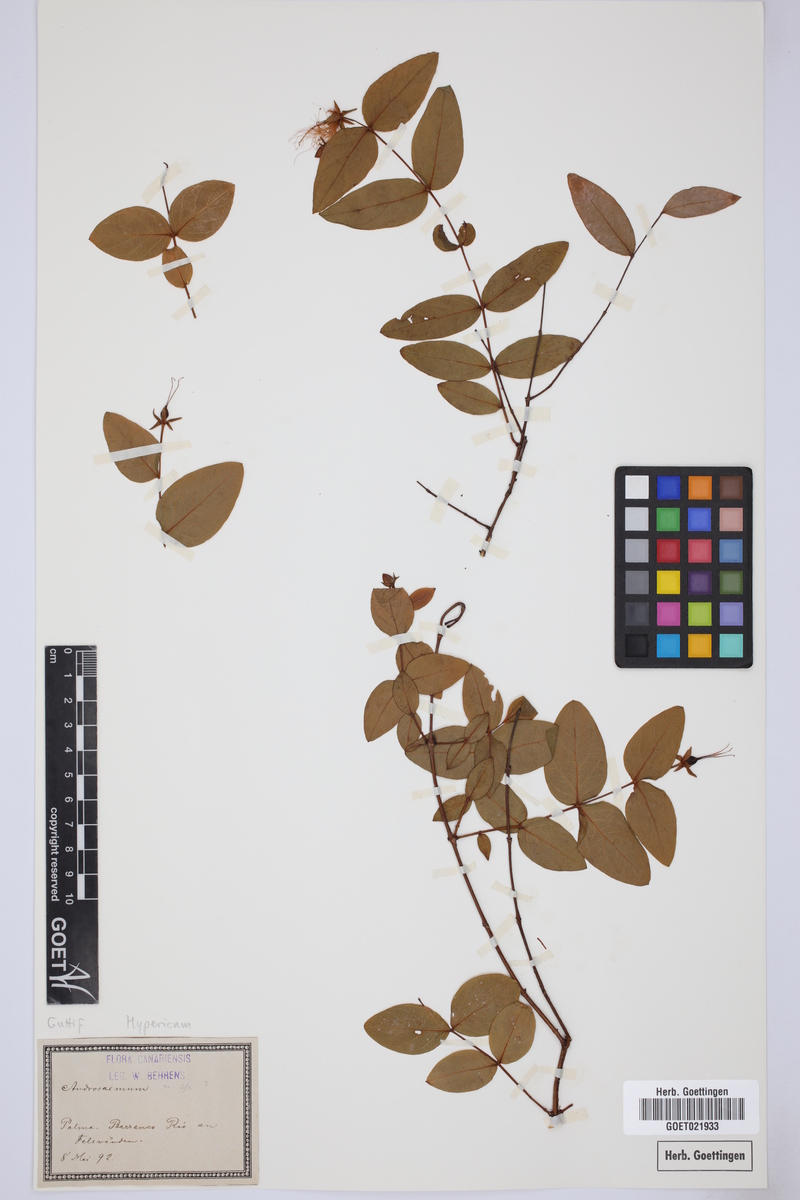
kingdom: Plantae
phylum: Tracheophyta
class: Magnoliopsida
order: Malpighiales
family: Hypericaceae
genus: Hypericum
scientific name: Hypericum
